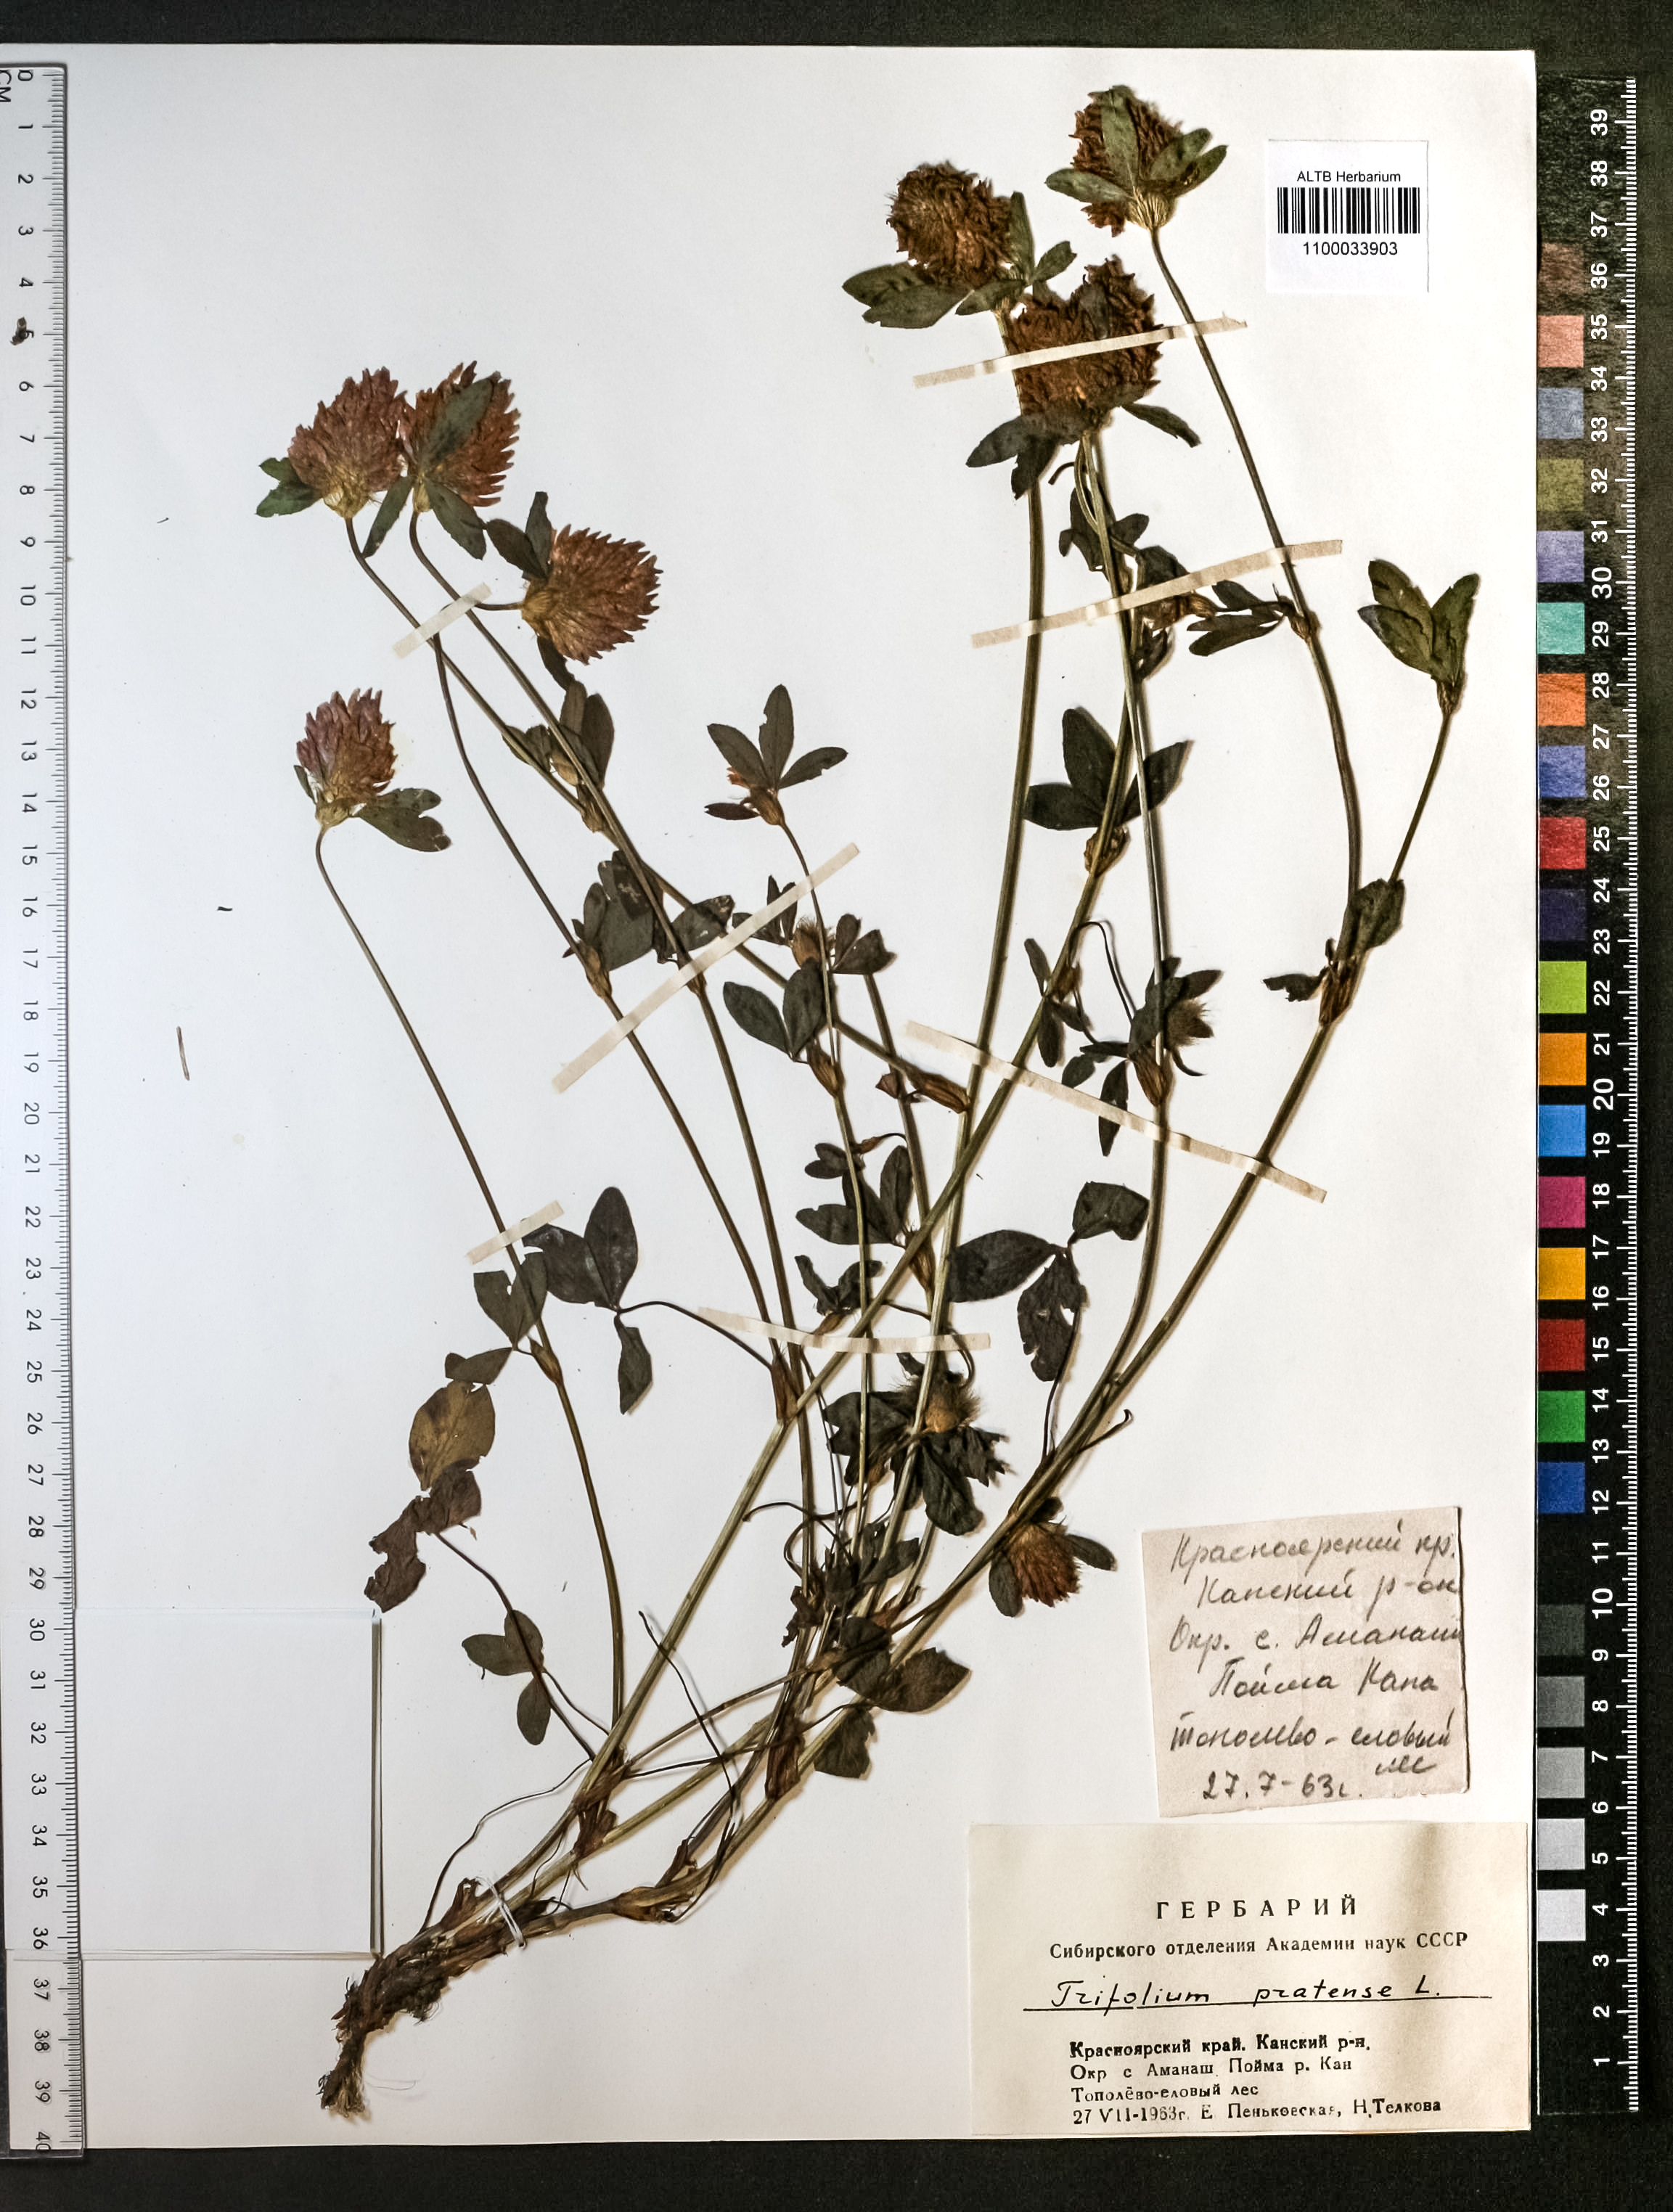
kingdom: Plantae
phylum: Tracheophyta
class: Magnoliopsida
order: Fabales
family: Fabaceae
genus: Trifolium
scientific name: Trifolium pratense
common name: Red clover
